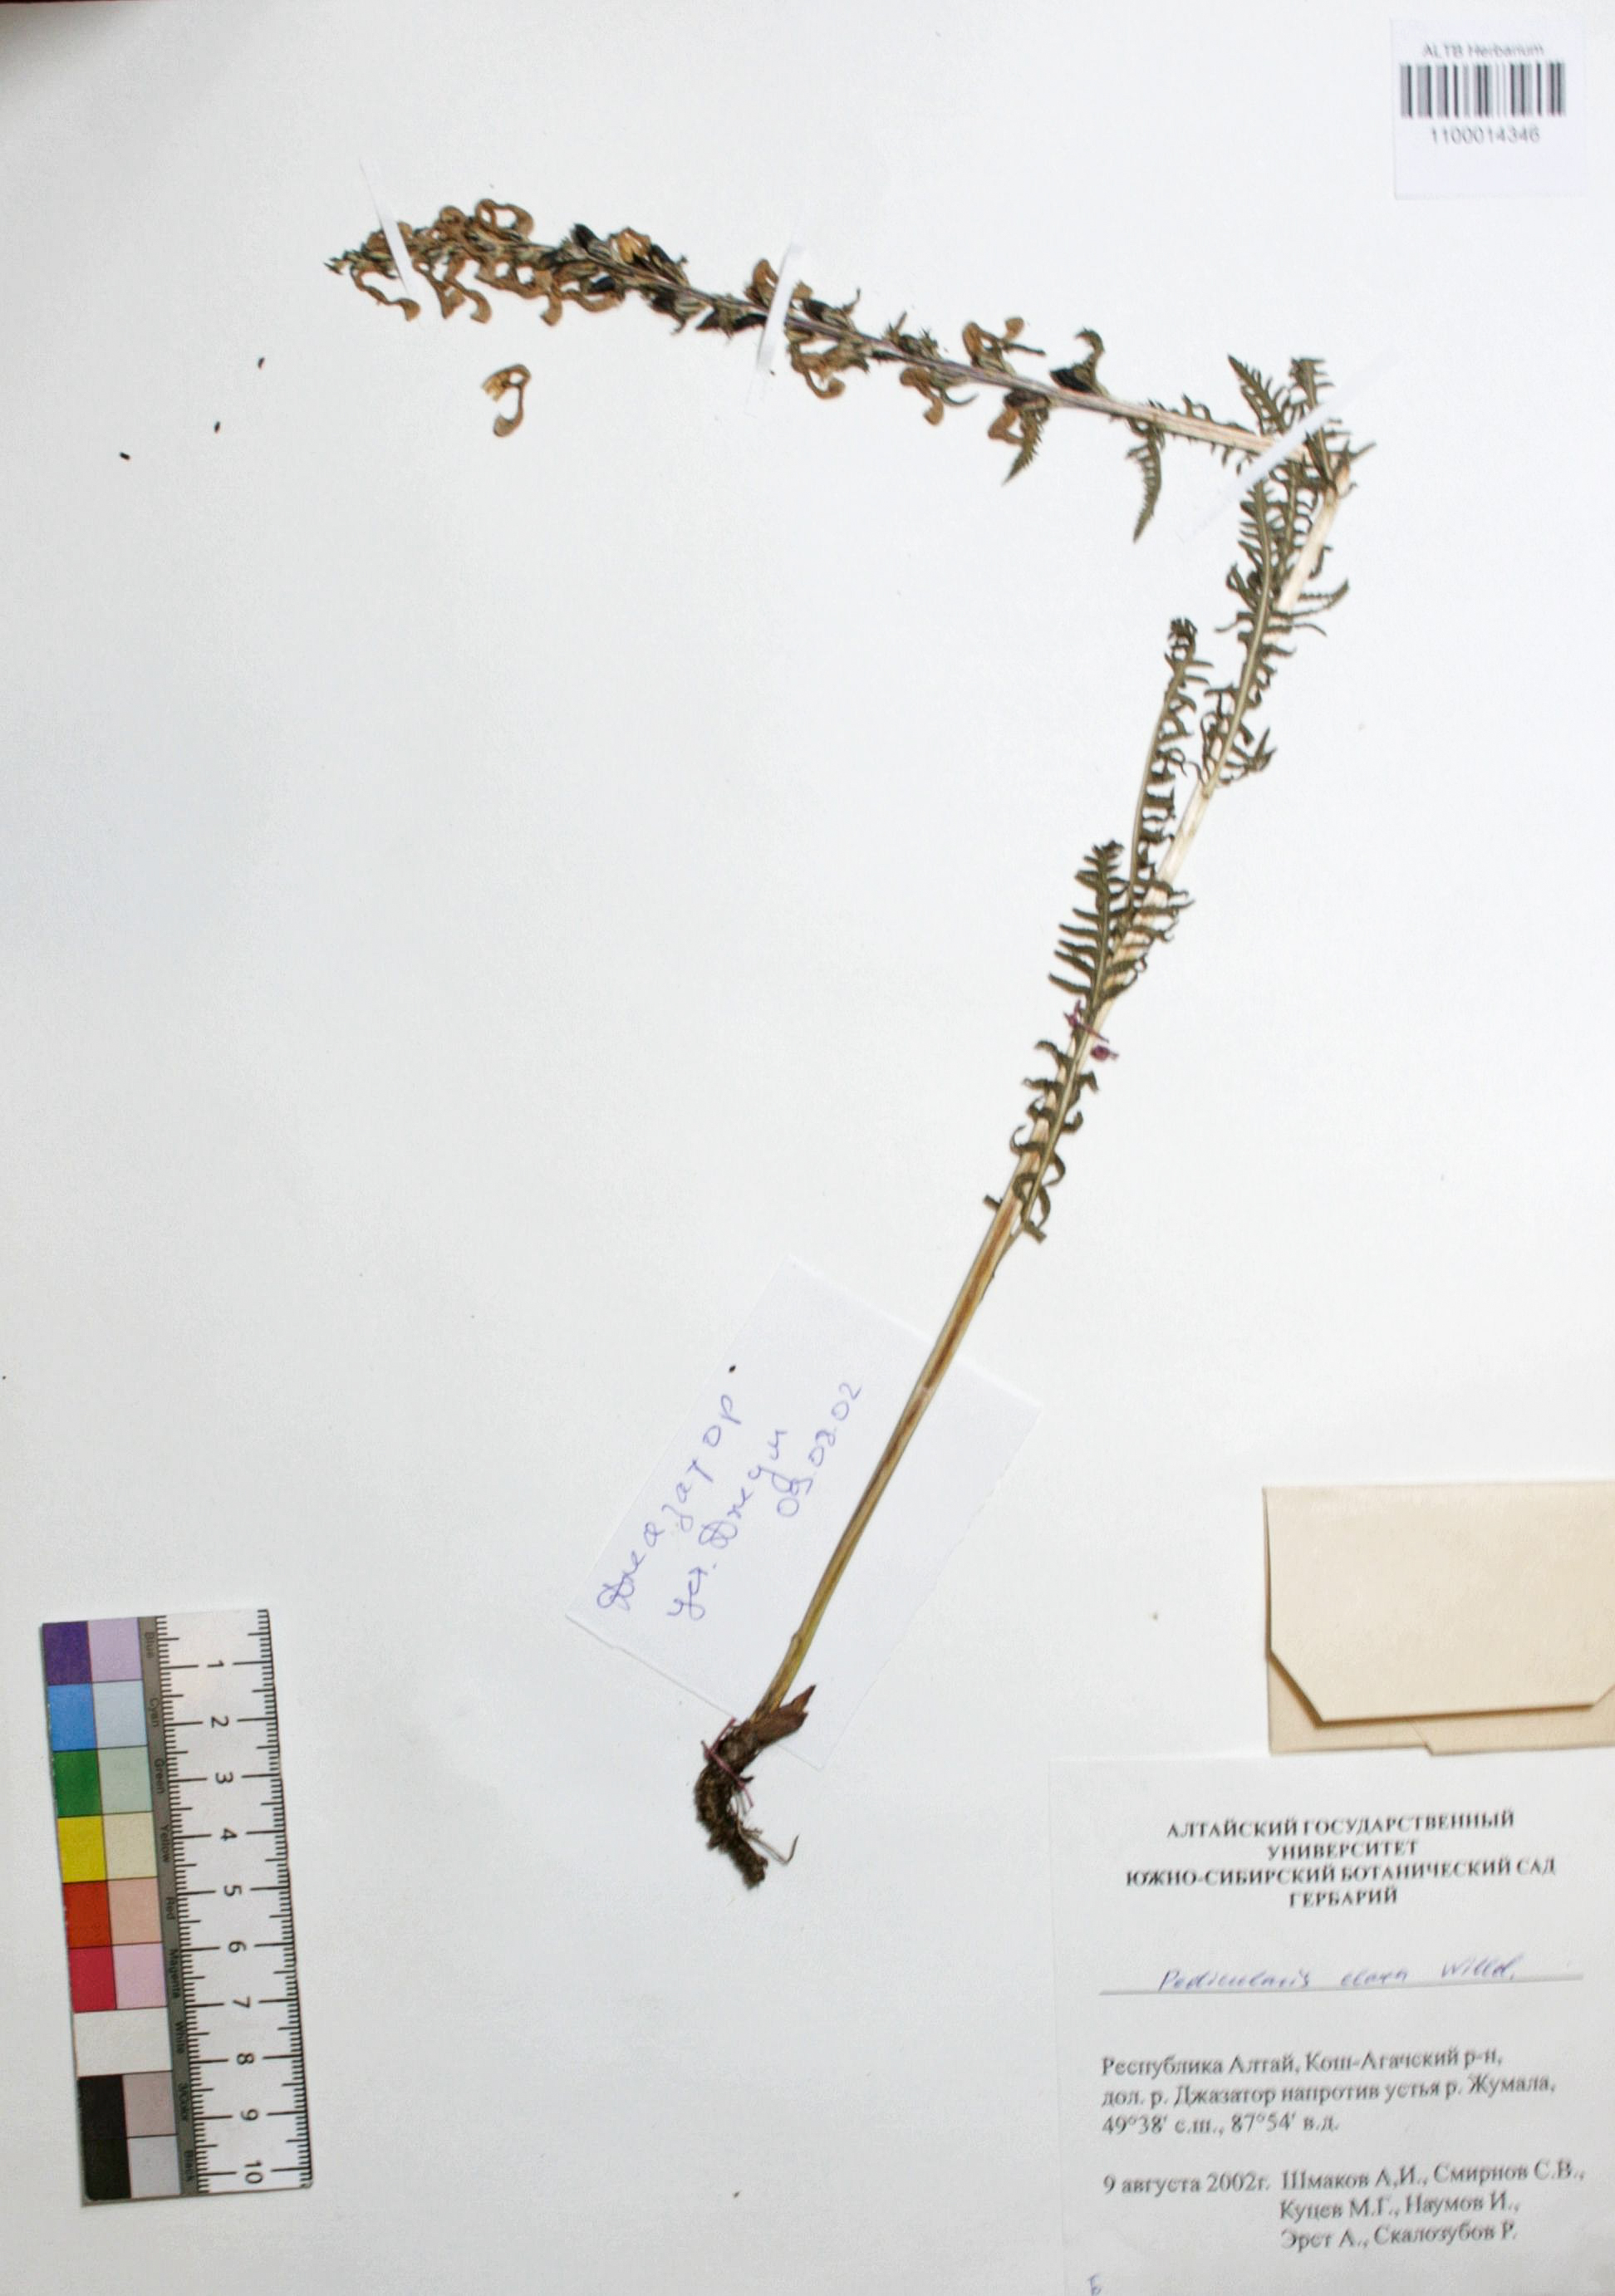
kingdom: Plantae
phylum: Tracheophyta
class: Magnoliopsida
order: Lamiales
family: Orobanchaceae
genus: Pedicularis
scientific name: Pedicularis elata
